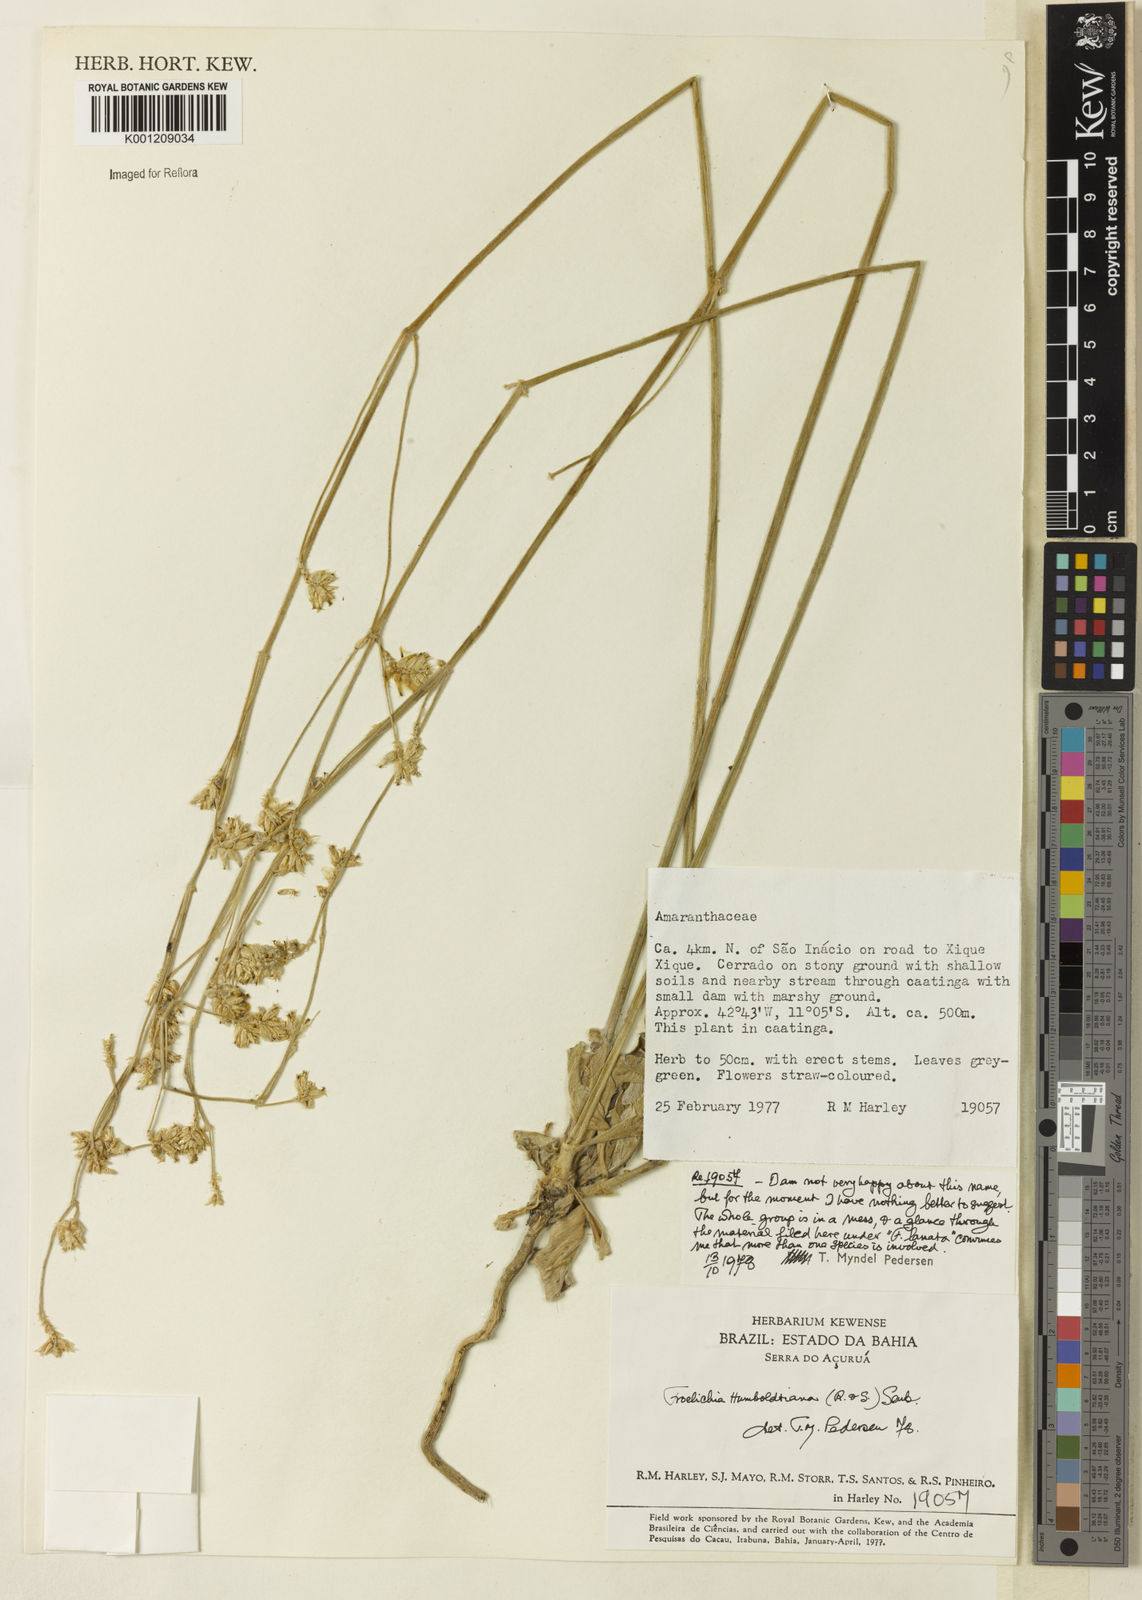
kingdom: Plantae
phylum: Tracheophyta
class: Magnoliopsida
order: Caryophyllales
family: Amaranthaceae
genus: Froelichia
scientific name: Froelichia humboldtiana
